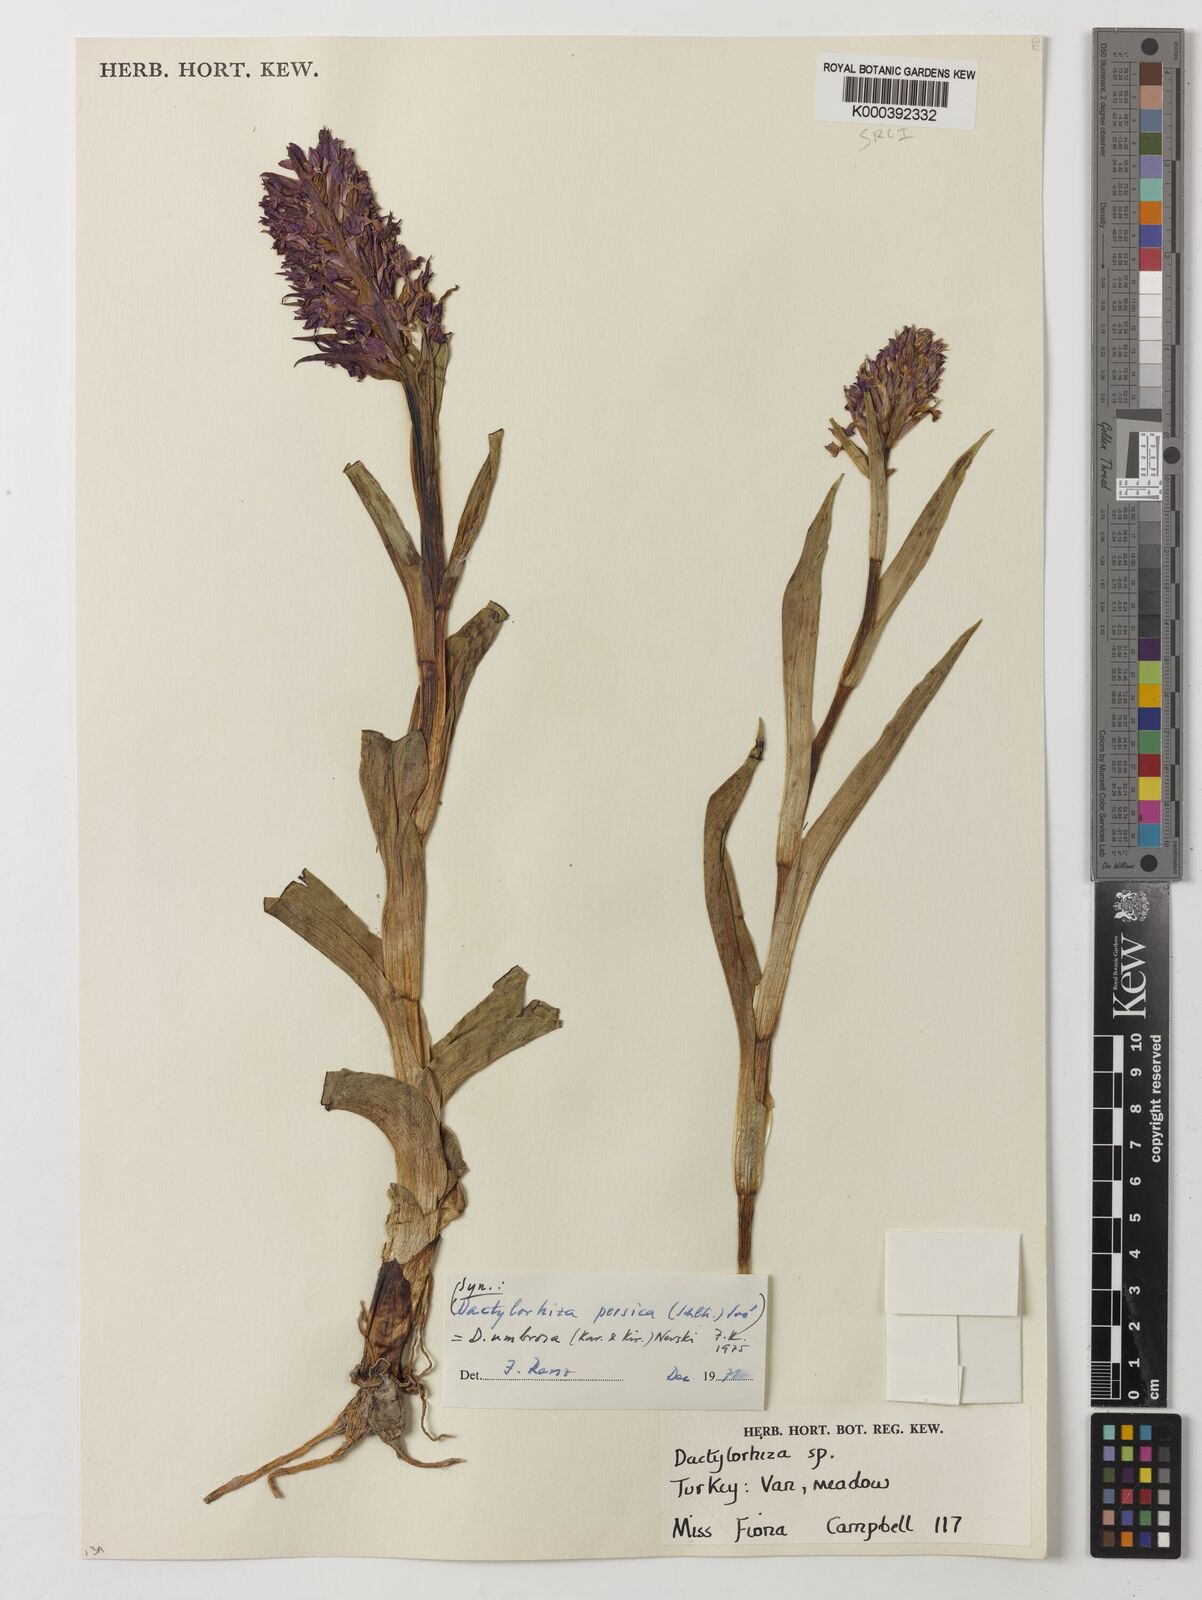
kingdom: Plantae
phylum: Tracheophyta
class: Liliopsida
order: Asparagales
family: Orchidaceae
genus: Dactylorhiza
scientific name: Dactylorhiza
